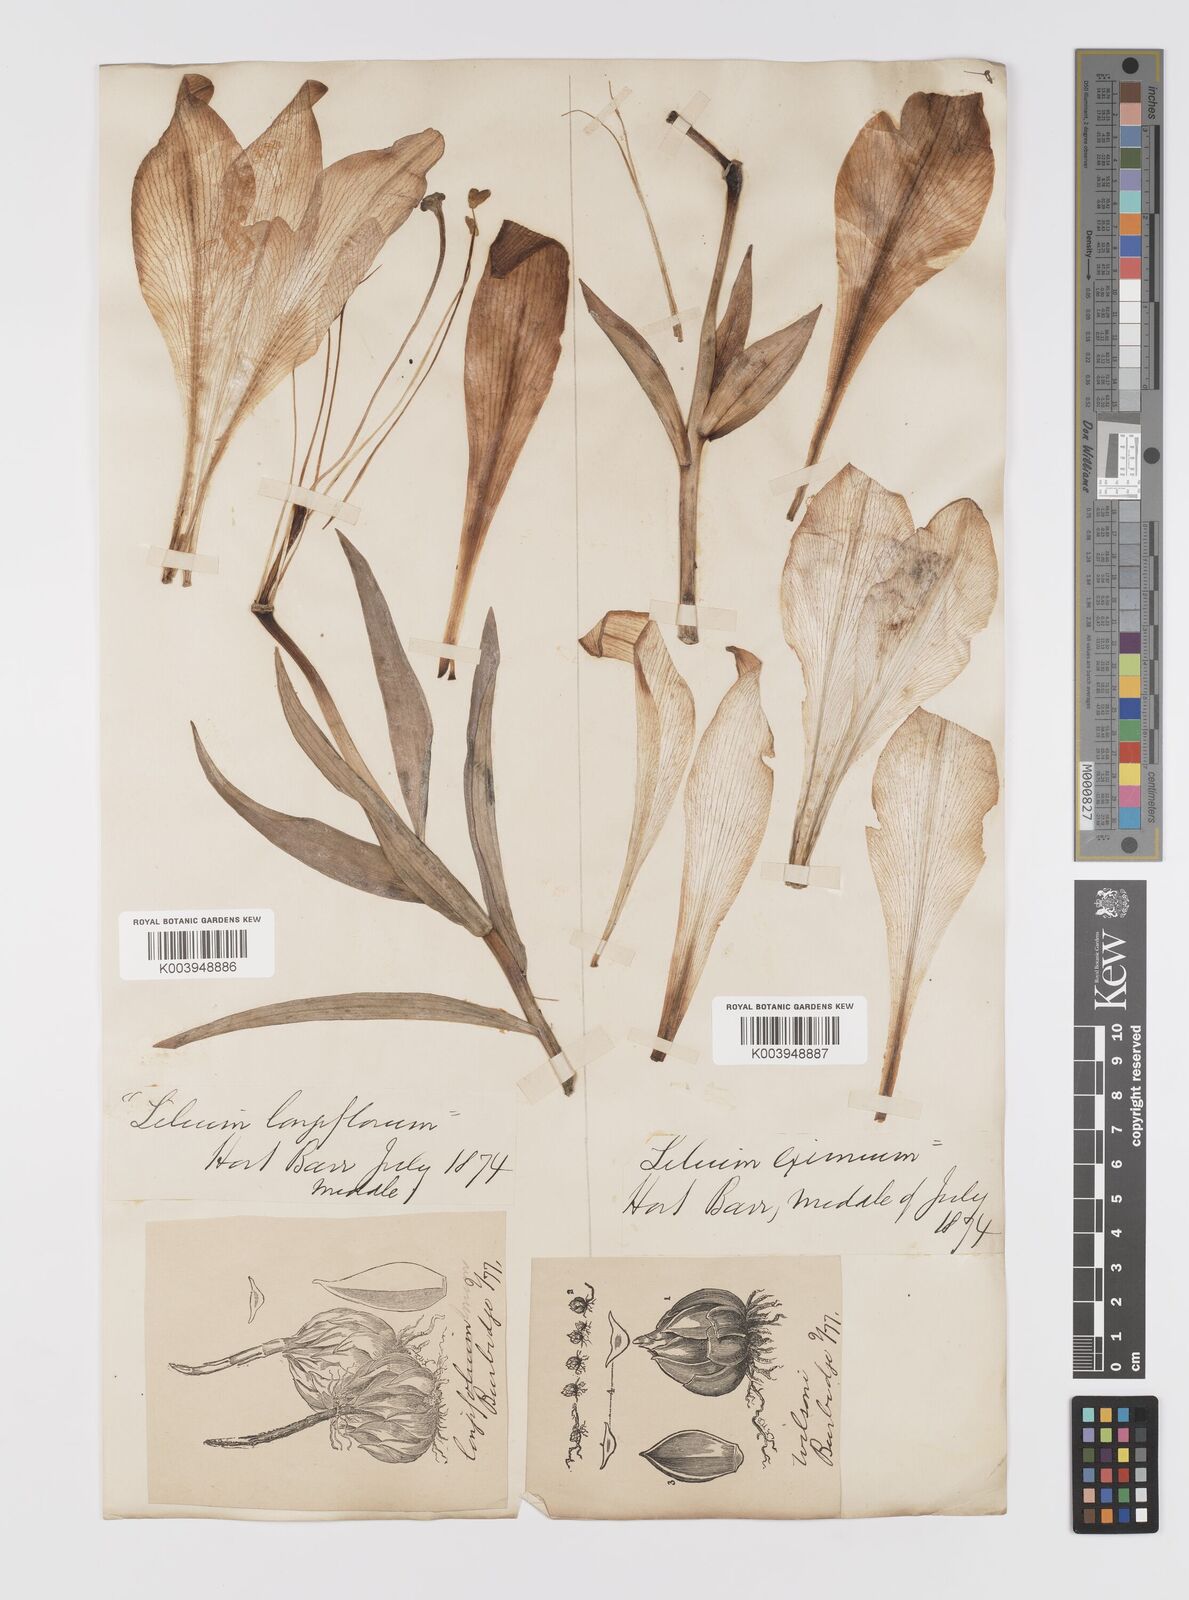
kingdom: Plantae
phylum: Tracheophyta
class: Liliopsida
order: Liliales
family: Liliaceae
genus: Lilium
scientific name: Lilium longiflorum
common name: Easter lily
